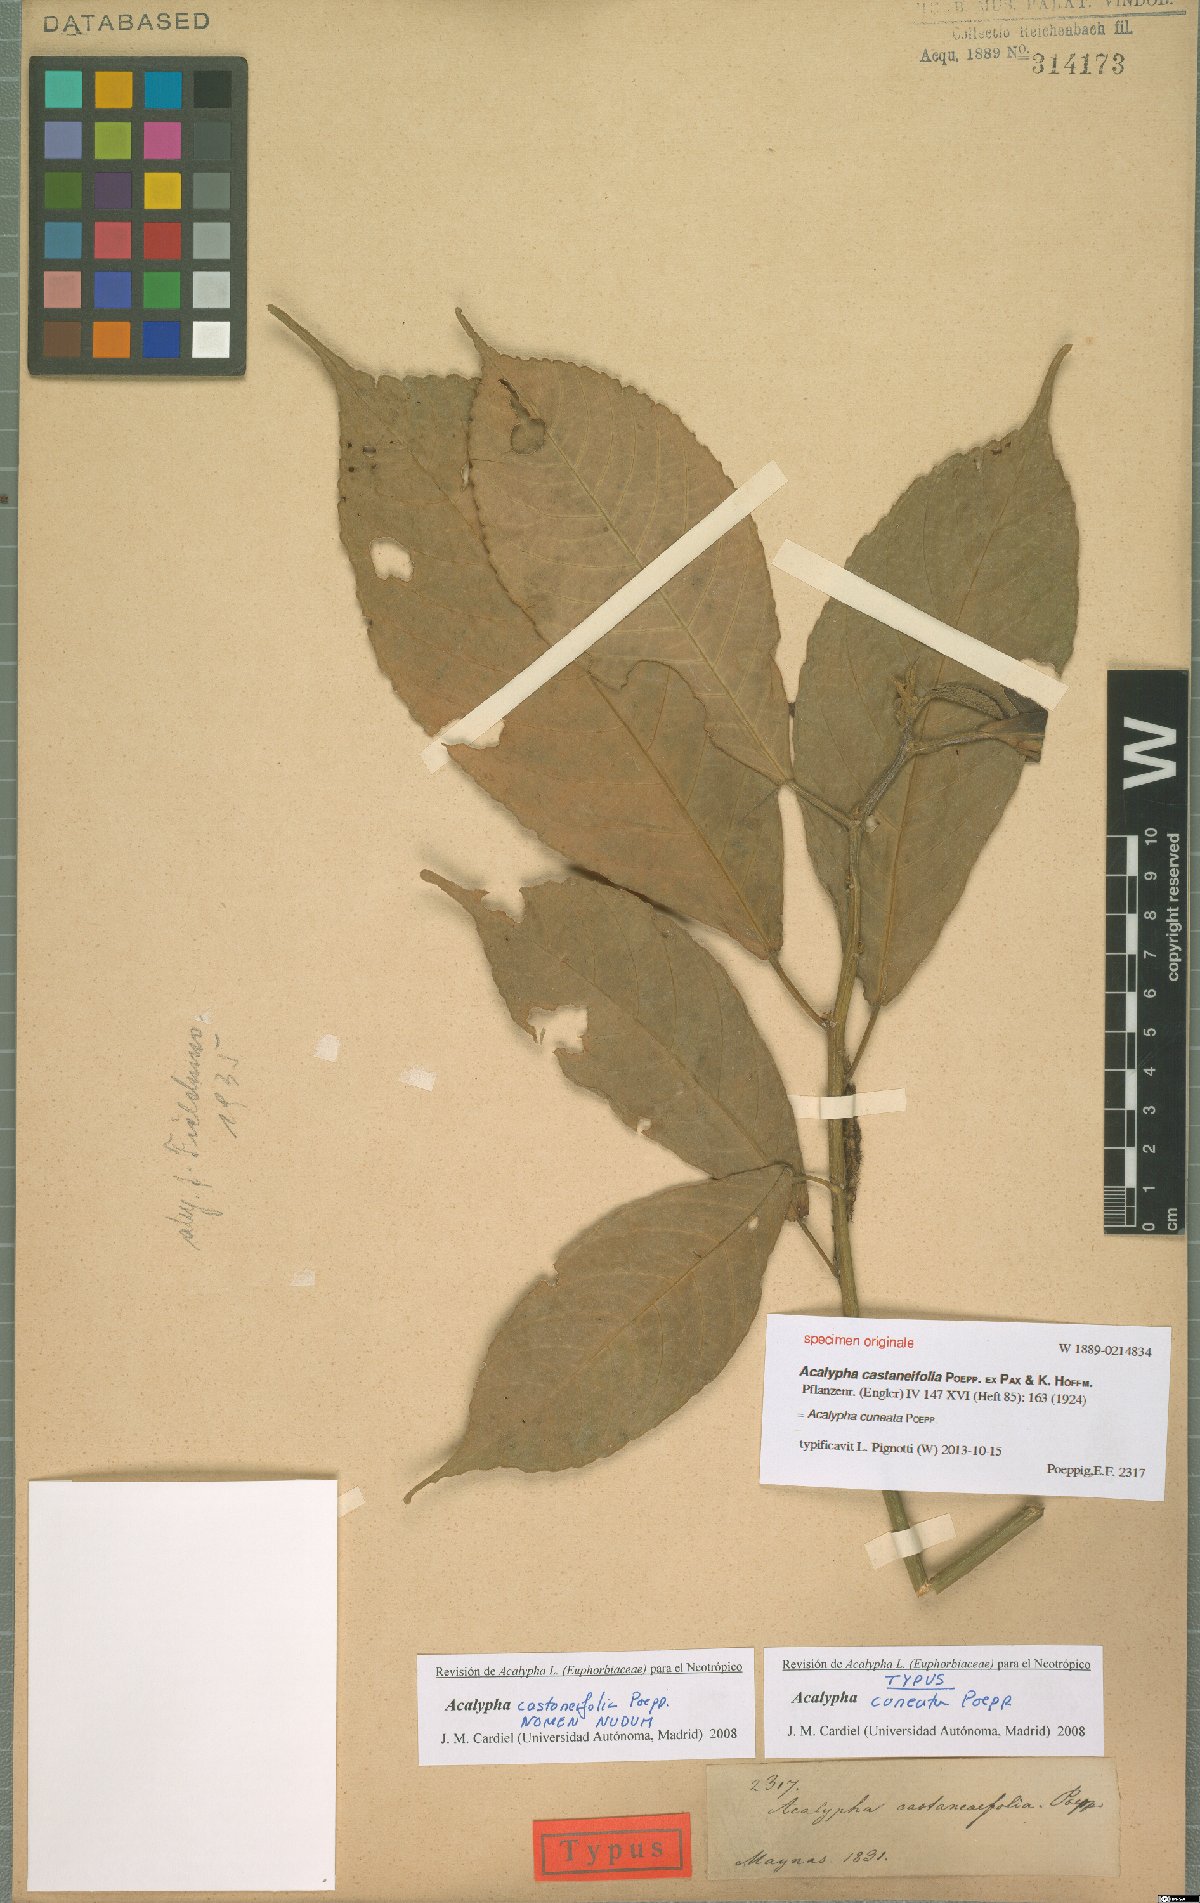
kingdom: Plantae
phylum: Tracheophyta
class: Magnoliopsida
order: Malpighiales
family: Euphorbiaceae
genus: Acalypha
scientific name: Acalypha cuneata
